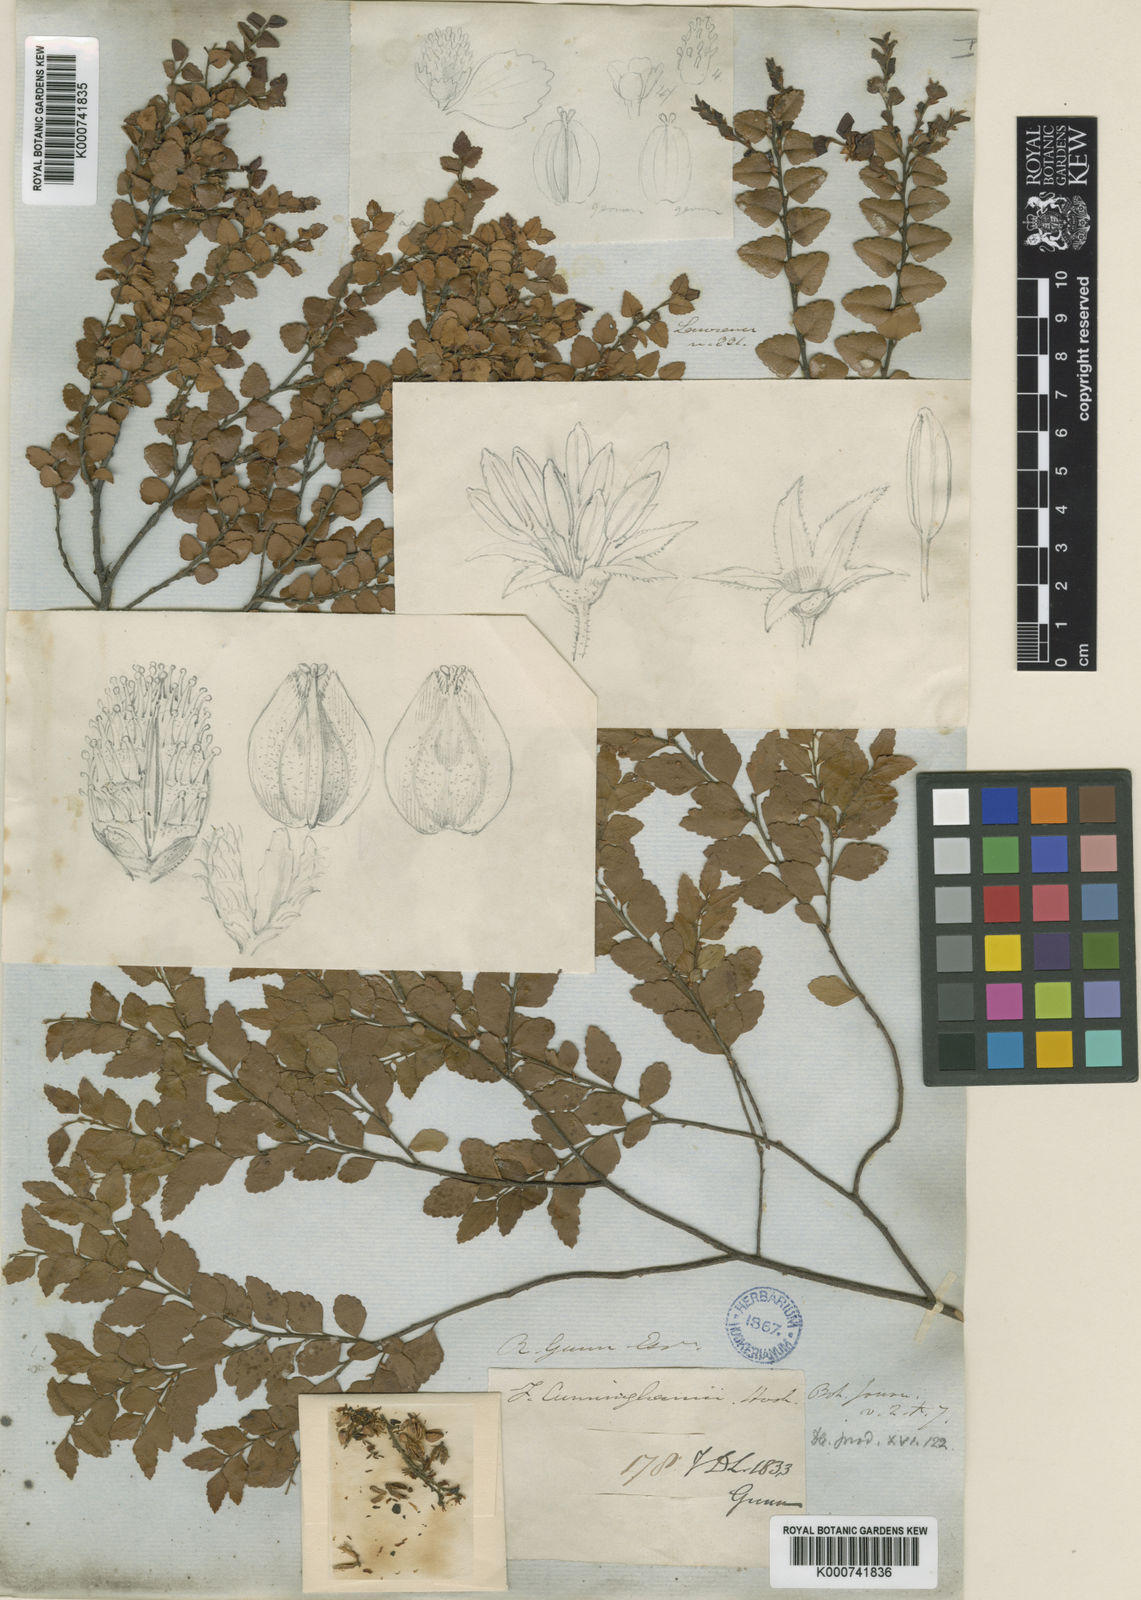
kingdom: Plantae
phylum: Tracheophyta
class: Magnoliopsida
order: Fagales
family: Nothofagaceae
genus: Nothofagus
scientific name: Nothofagus cunninghamii
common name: Myrtle beech
